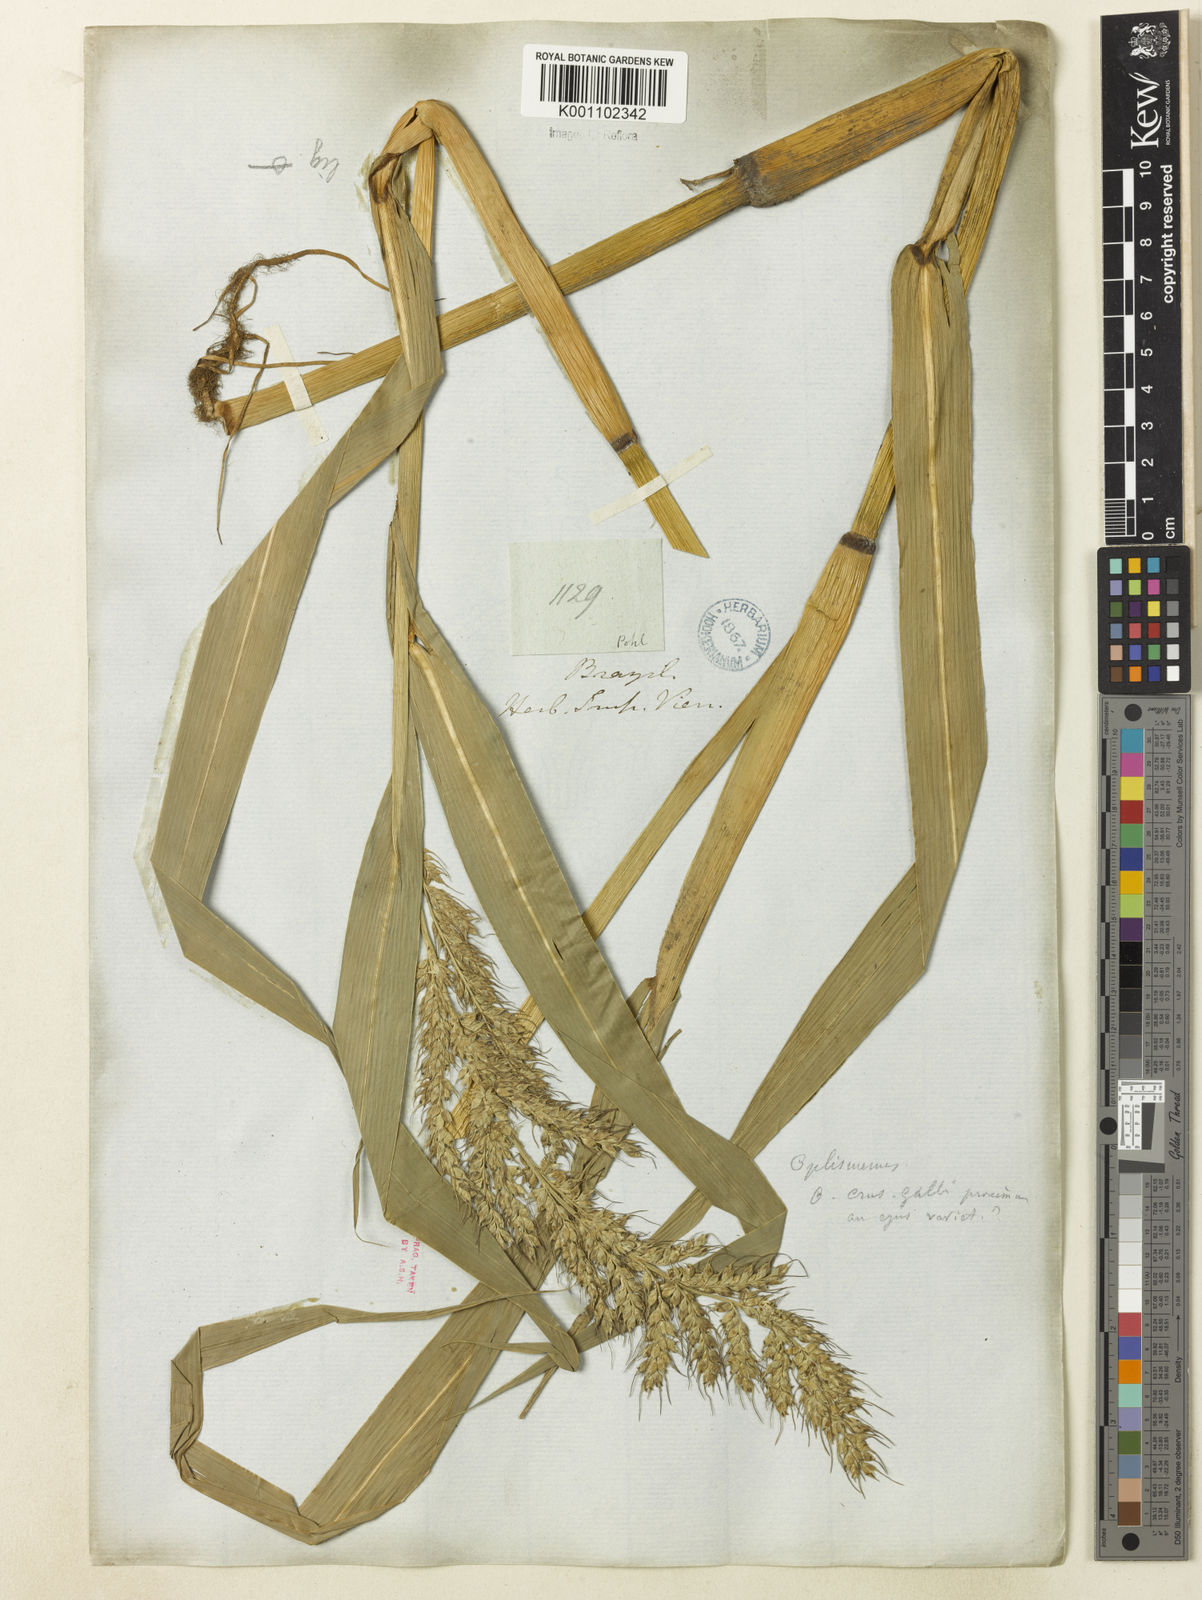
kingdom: Plantae
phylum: Tracheophyta
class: Liliopsida
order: Poales
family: Poaceae
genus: Echinochloa
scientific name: Echinochloa polystachya
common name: Creeping river grass
